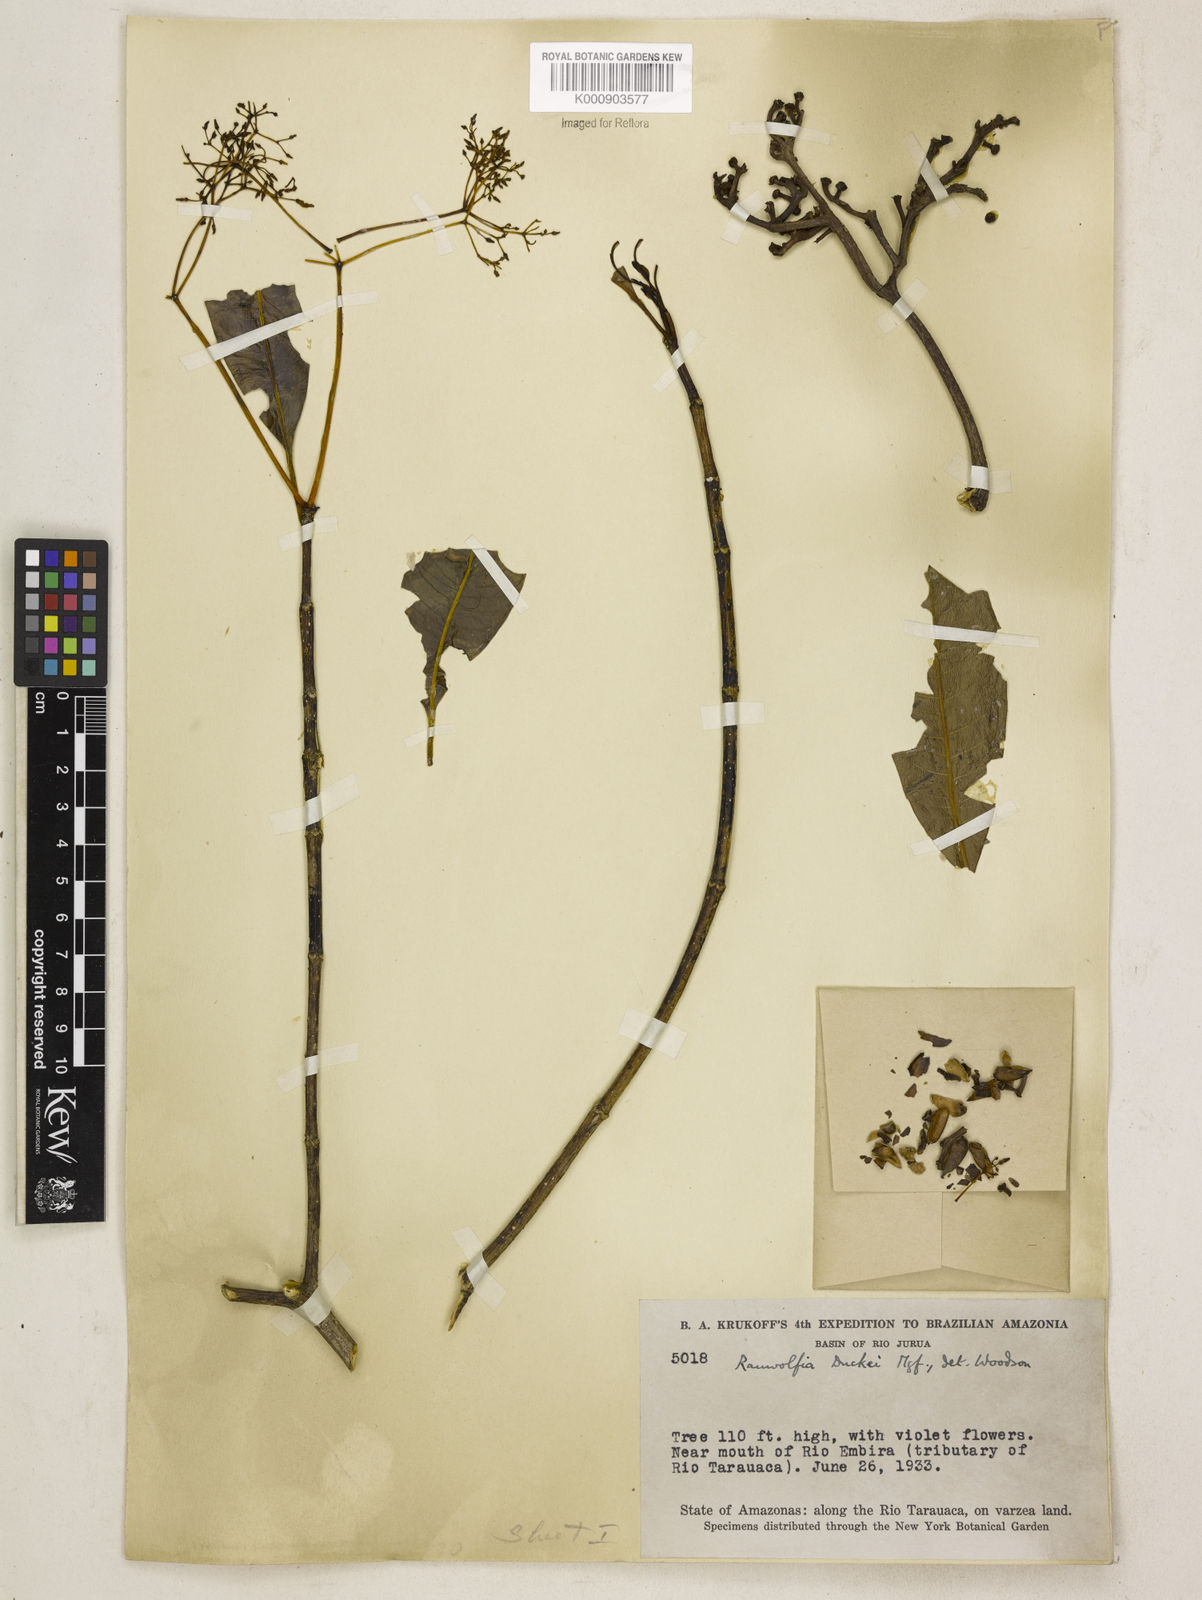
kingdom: Plantae
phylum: Tracheophyta
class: Magnoliopsida
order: Gentianales
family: Apocynaceae
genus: Rauvolfia
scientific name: Rauvolfia pentaphylla
